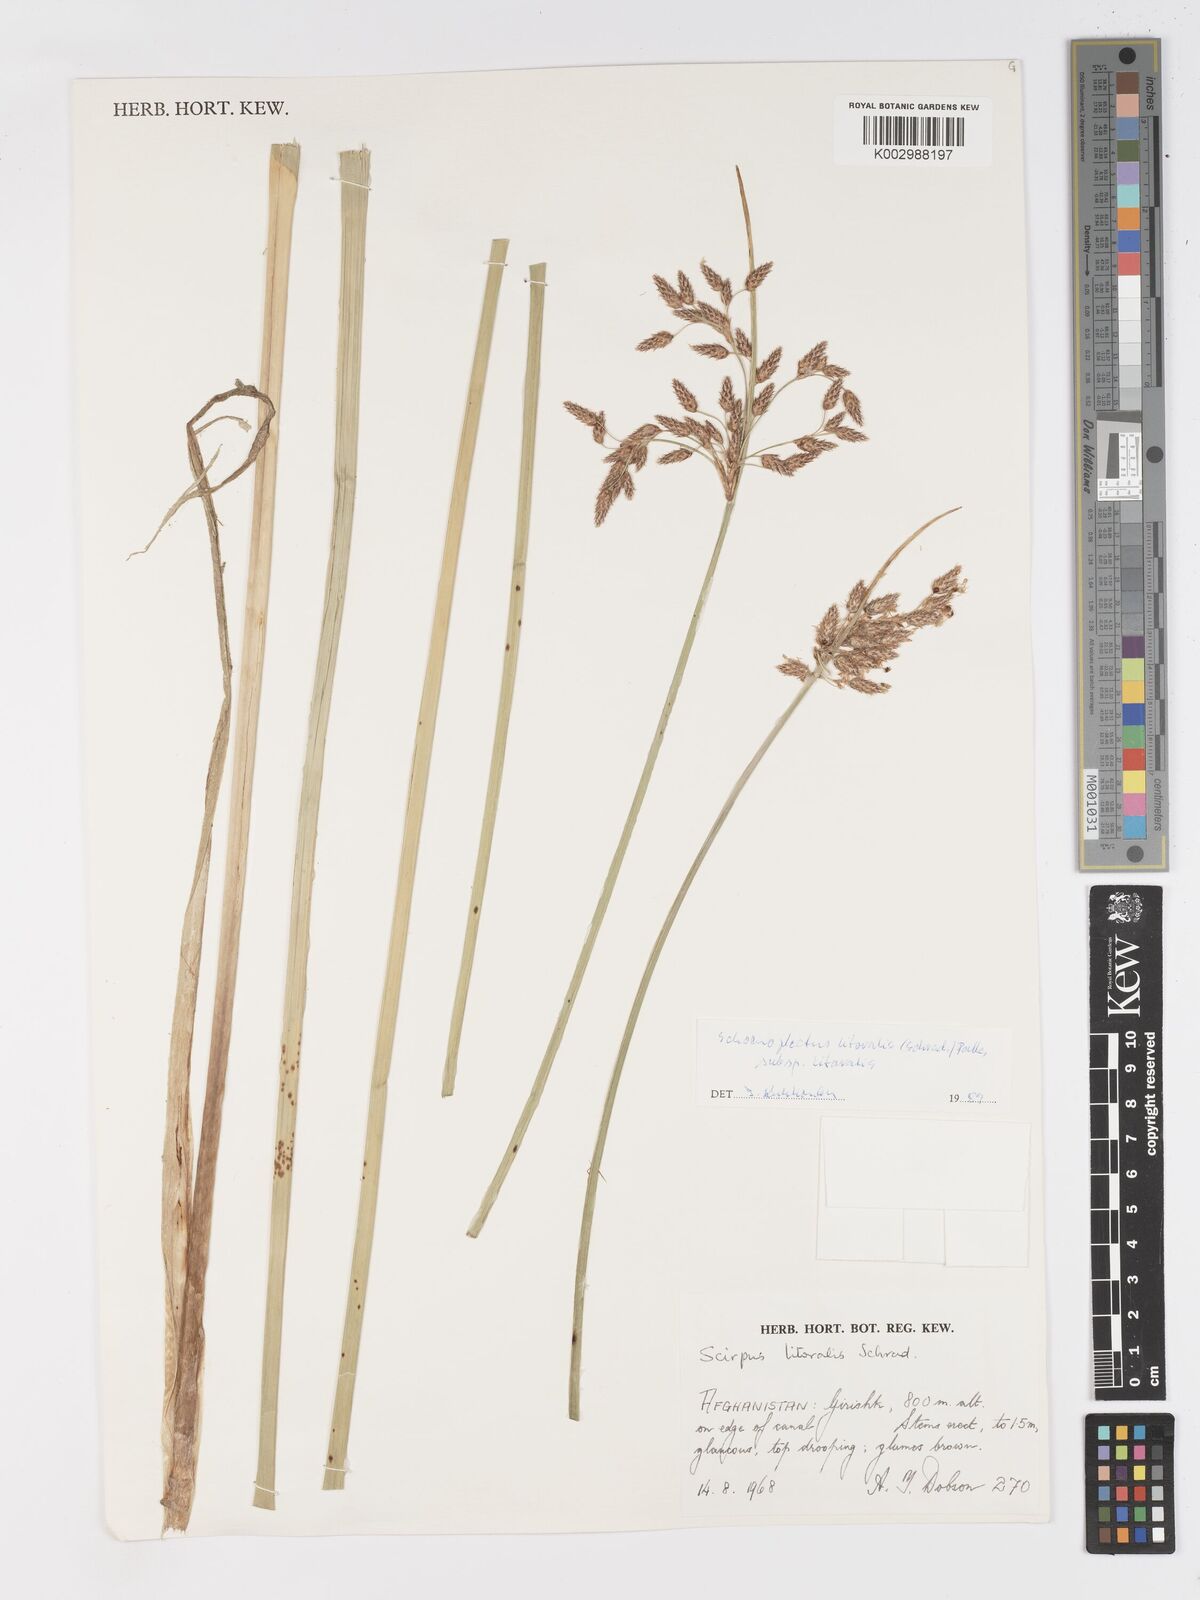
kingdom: Plantae
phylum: Tracheophyta
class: Liliopsida
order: Poales
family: Cyperaceae
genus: Schoenoplectus
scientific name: Schoenoplectus litoralis
